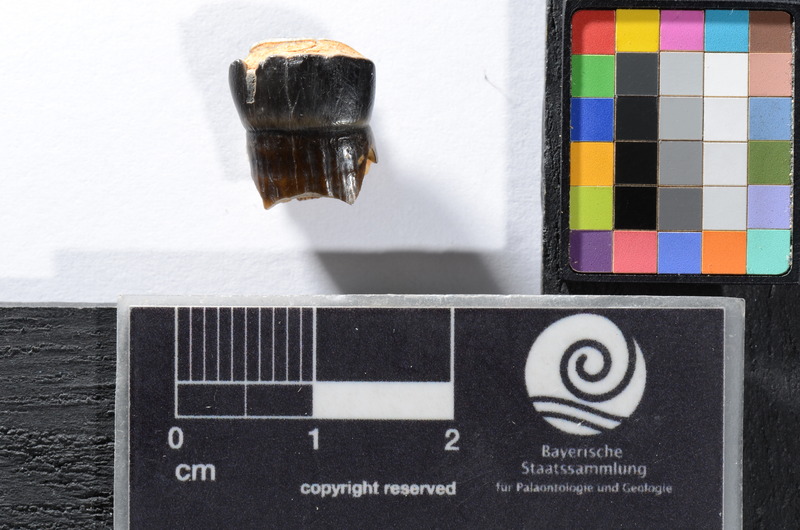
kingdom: Animalia
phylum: Chordata
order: Cypriniformes
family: Cyprinidae
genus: Capitodus
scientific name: Capitodus
